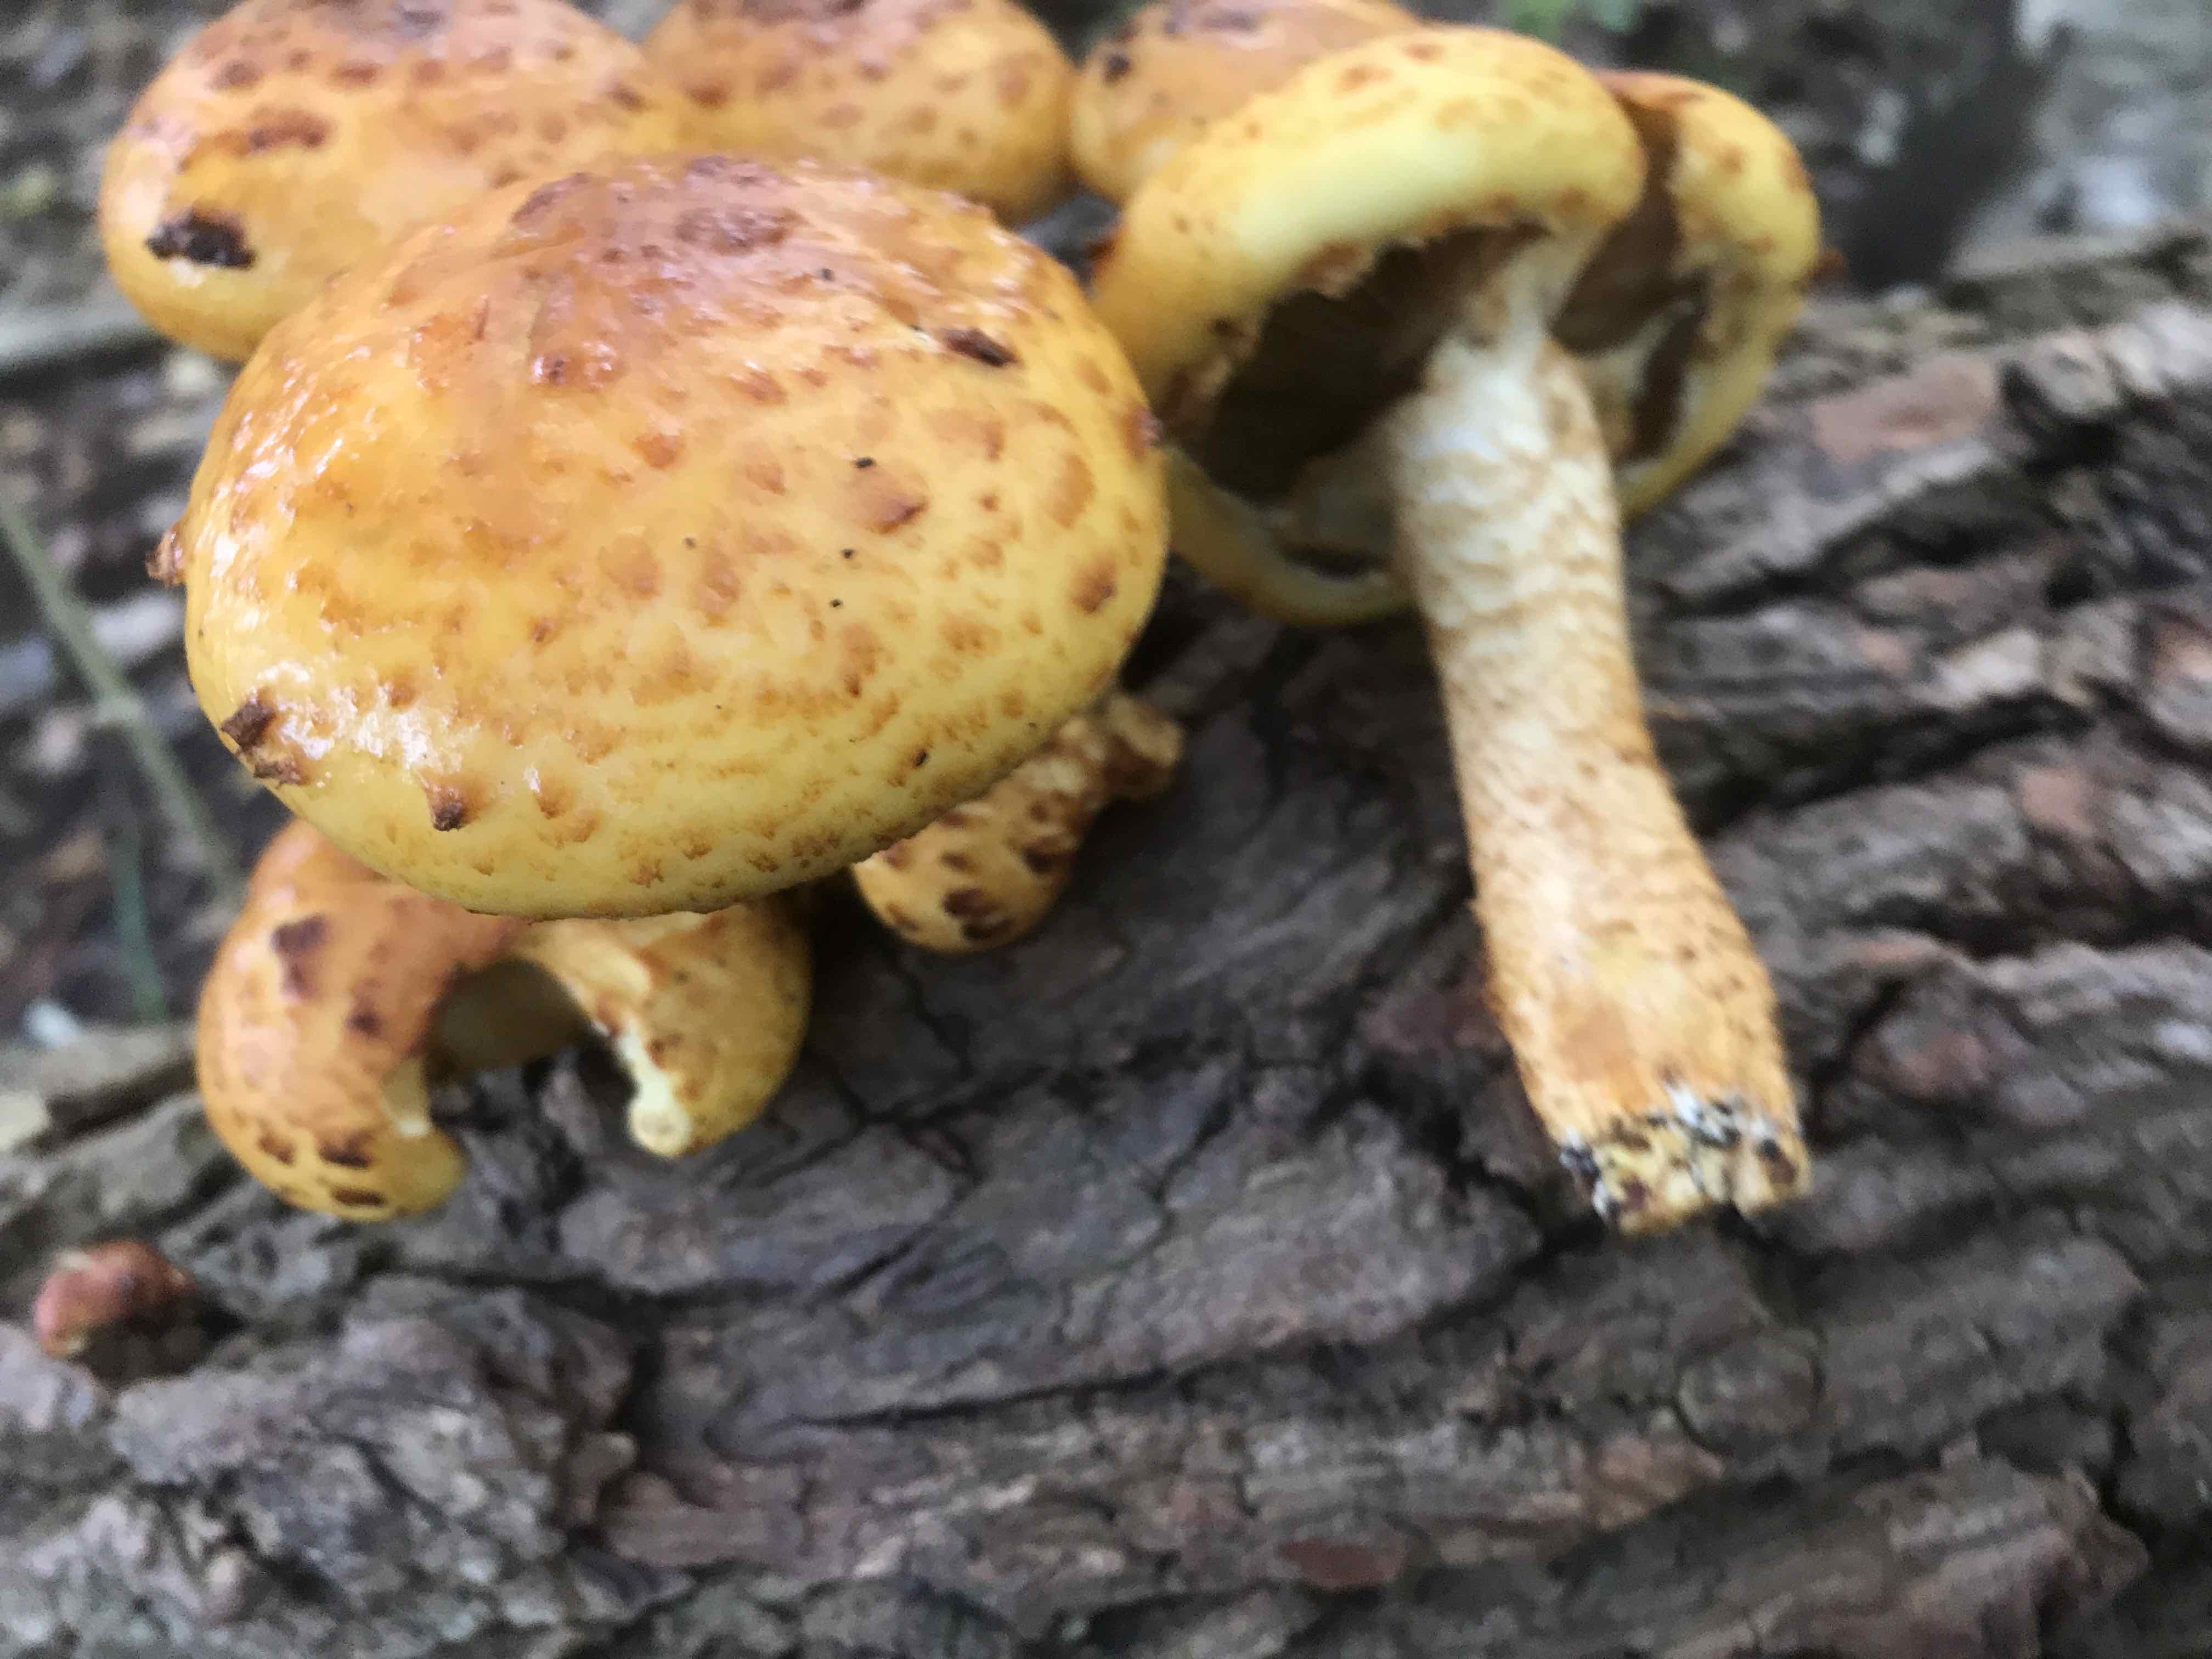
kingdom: Fungi
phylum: Basidiomycota
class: Agaricomycetes
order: Agaricales
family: Strophariaceae
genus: Pholiota
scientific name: Pholiota adiposa
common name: højtsiddende skælhat
